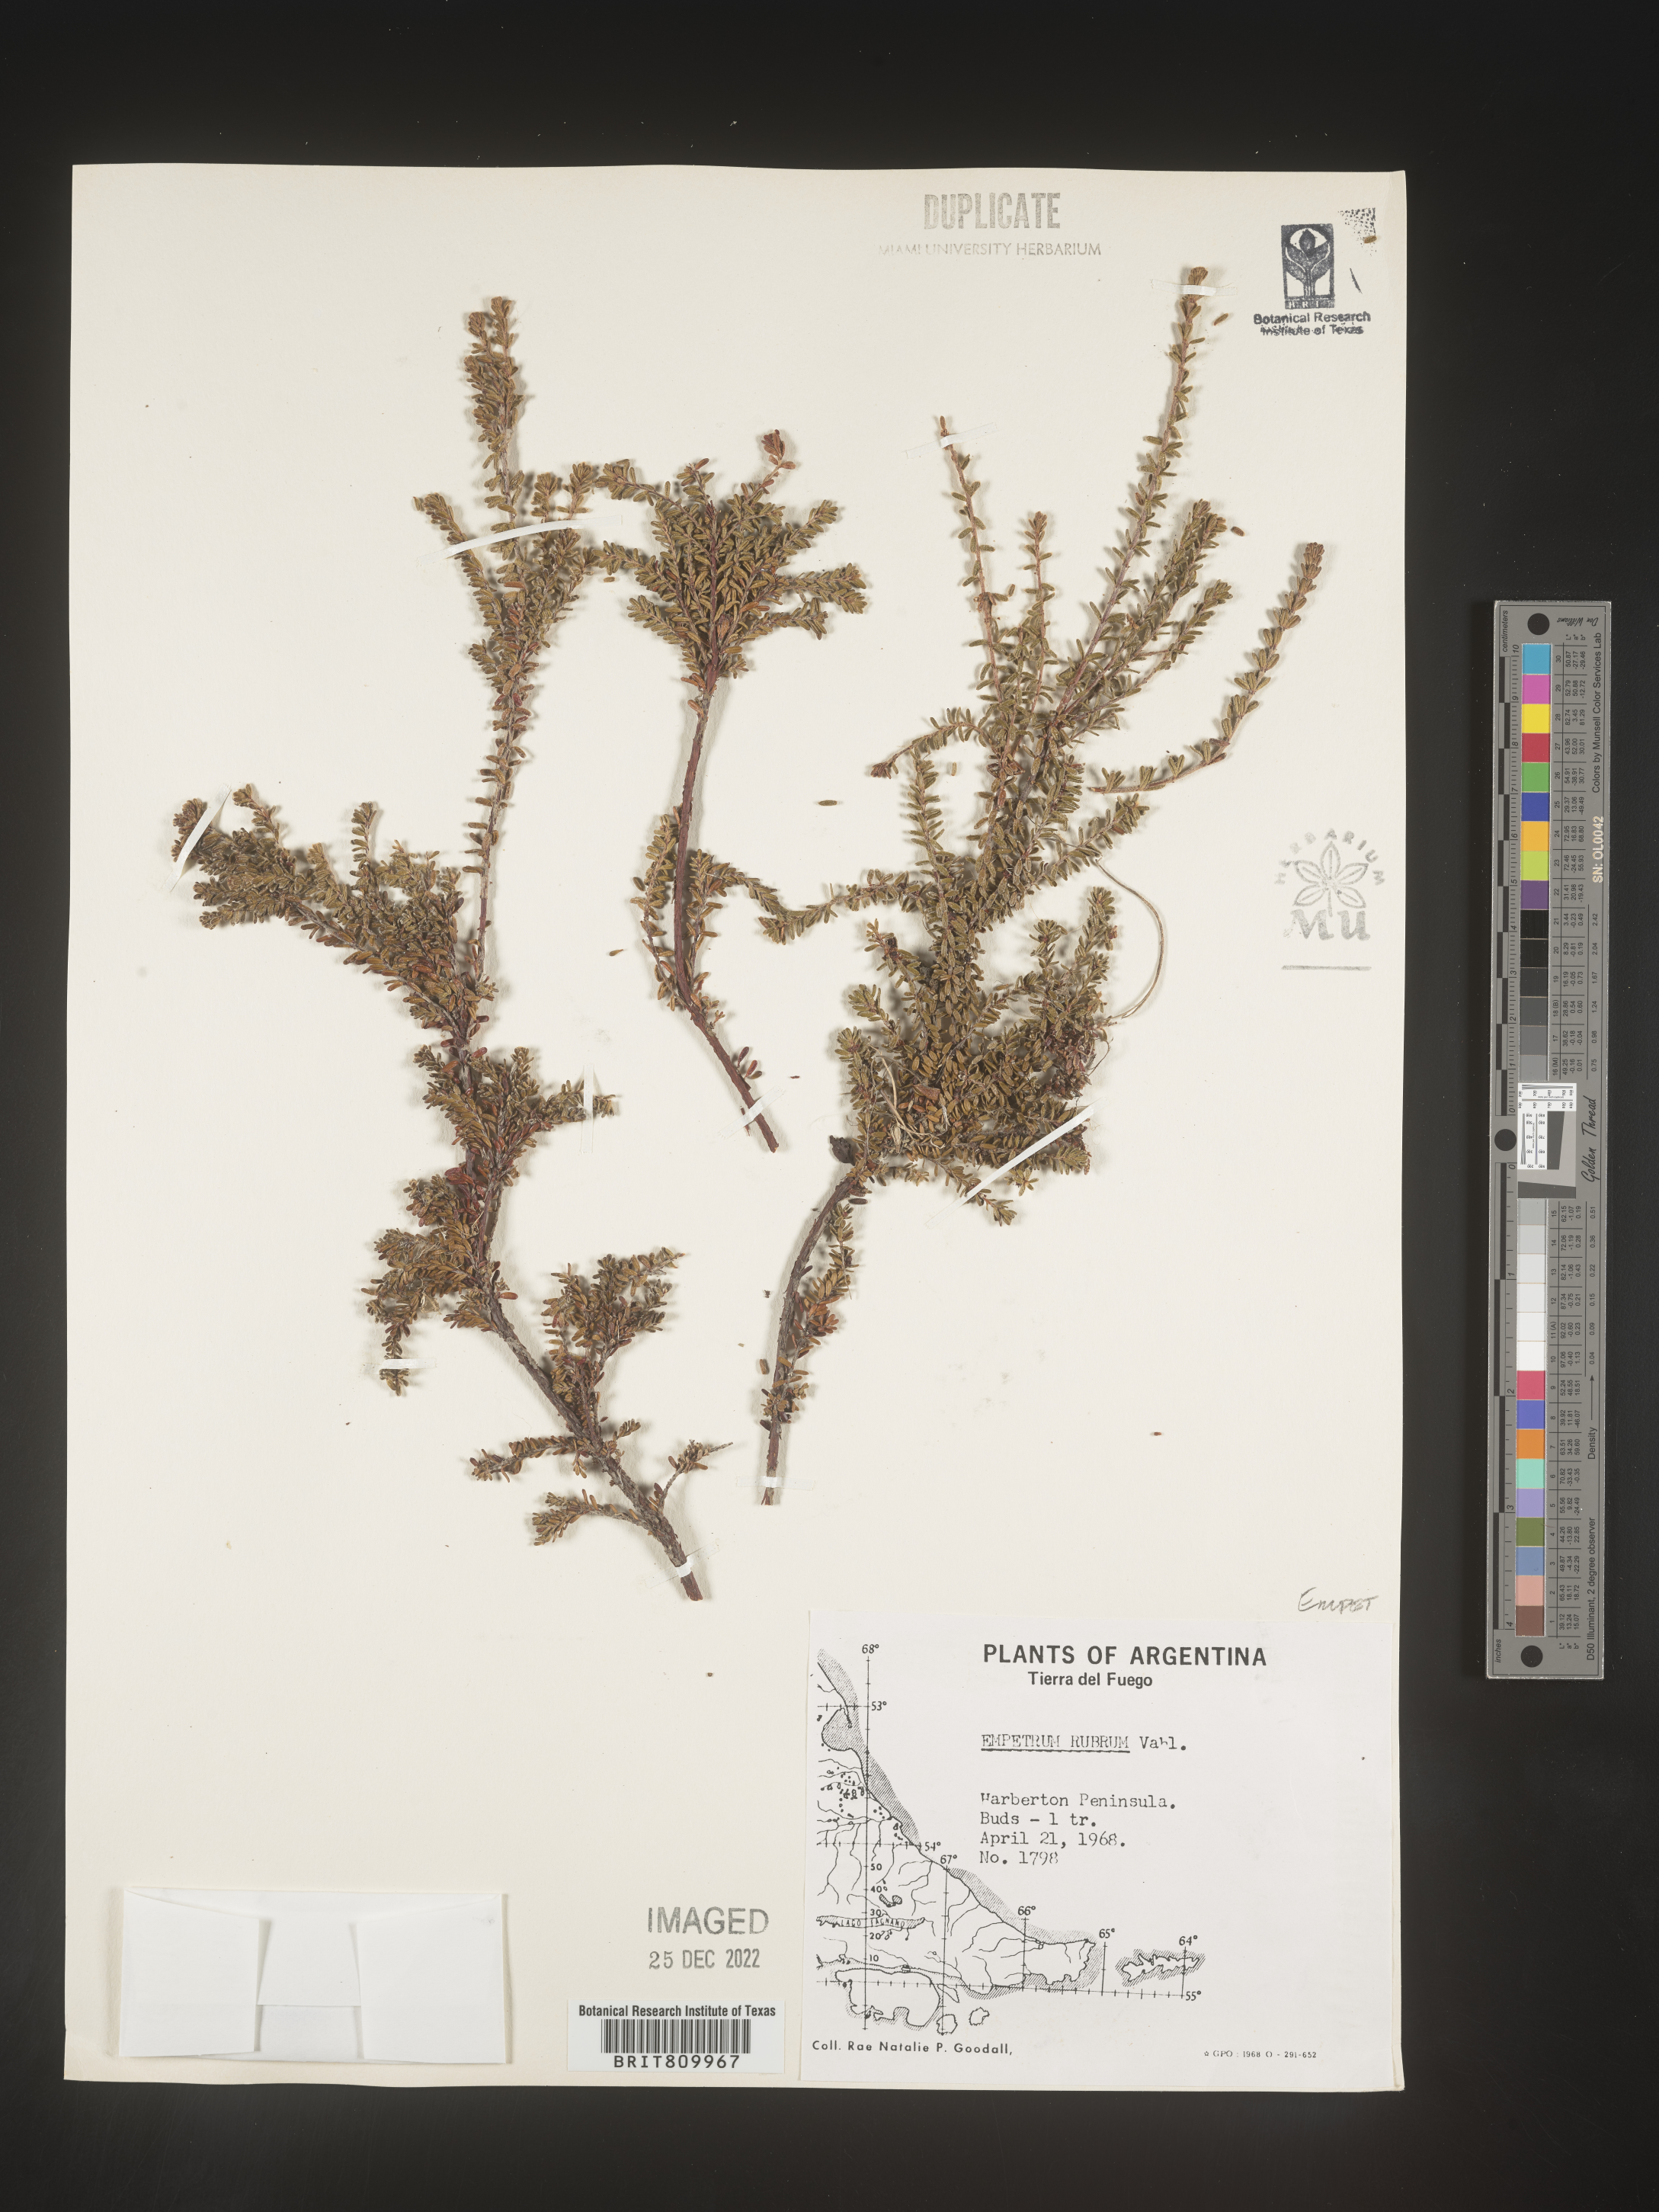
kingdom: Plantae
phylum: Tracheophyta
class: Magnoliopsida
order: Ericales
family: Ericaceae
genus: Empetrum
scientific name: Empetrum
